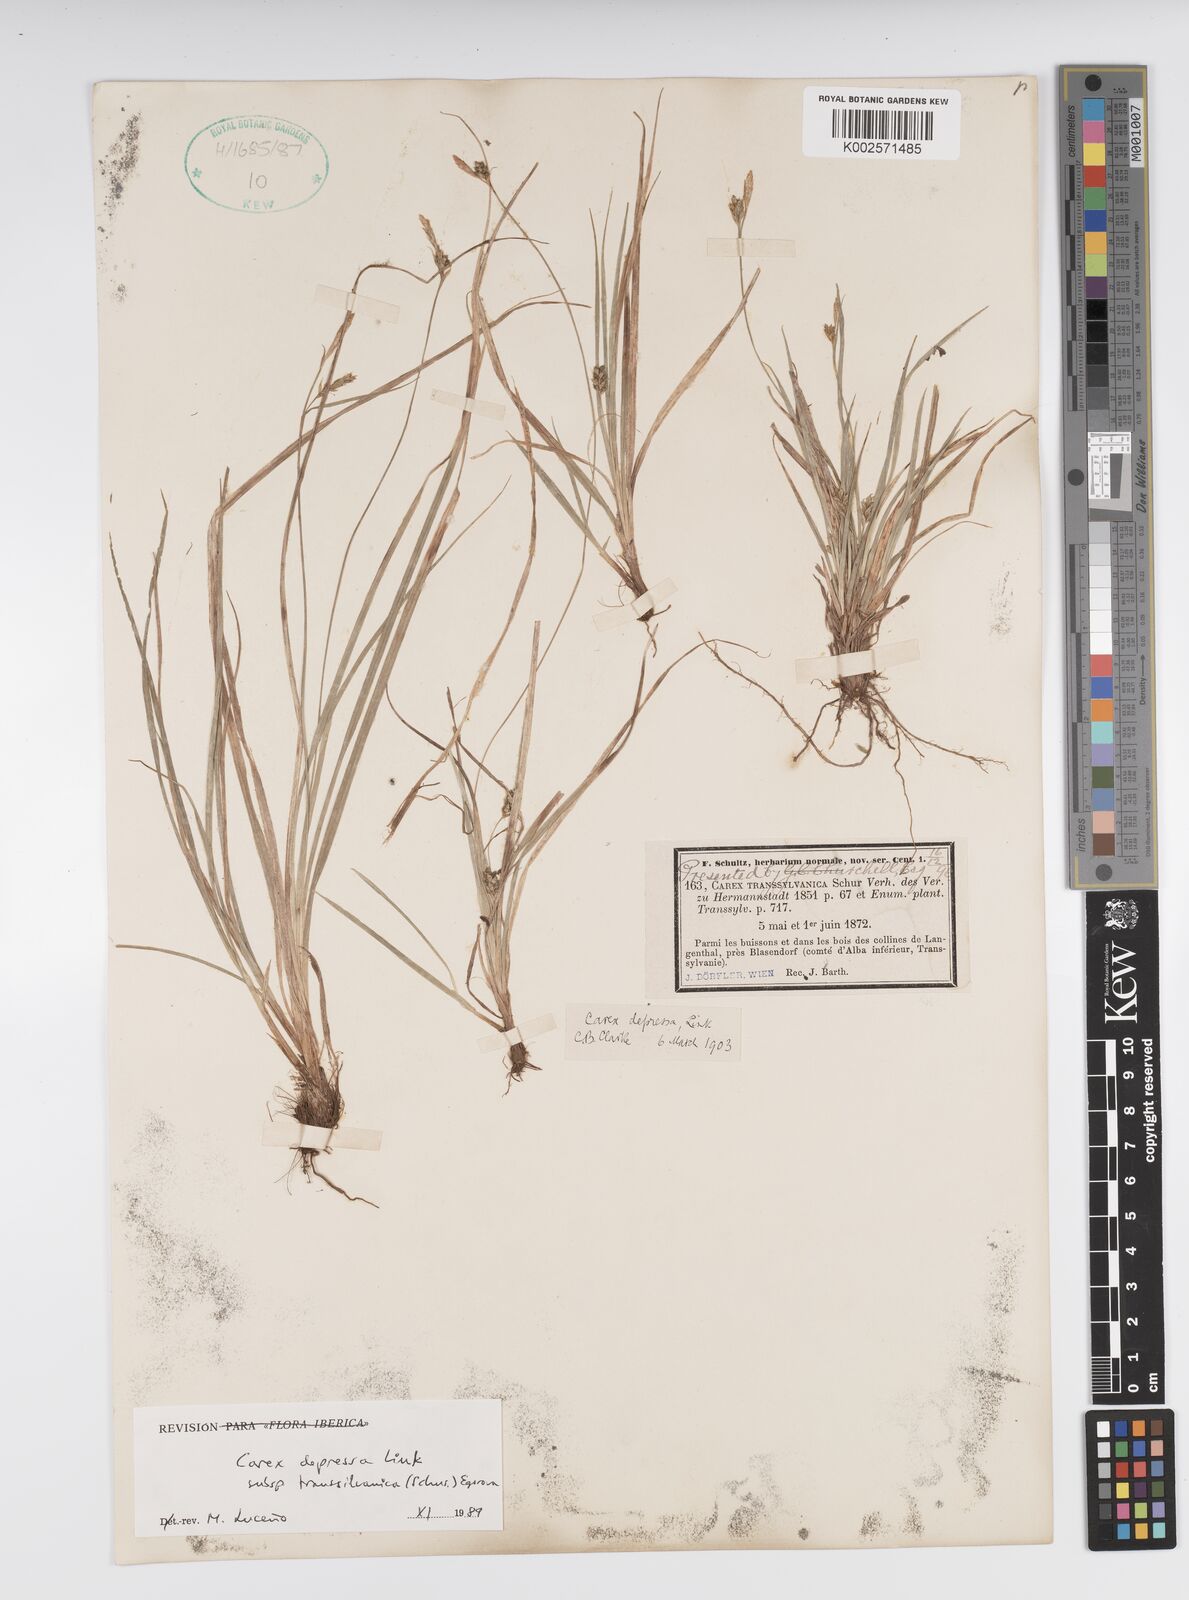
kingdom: Plantae
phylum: Tracheophyta
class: Liliopsida
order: Poales
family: Cyperaceae
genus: Carex
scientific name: Carex depressa
